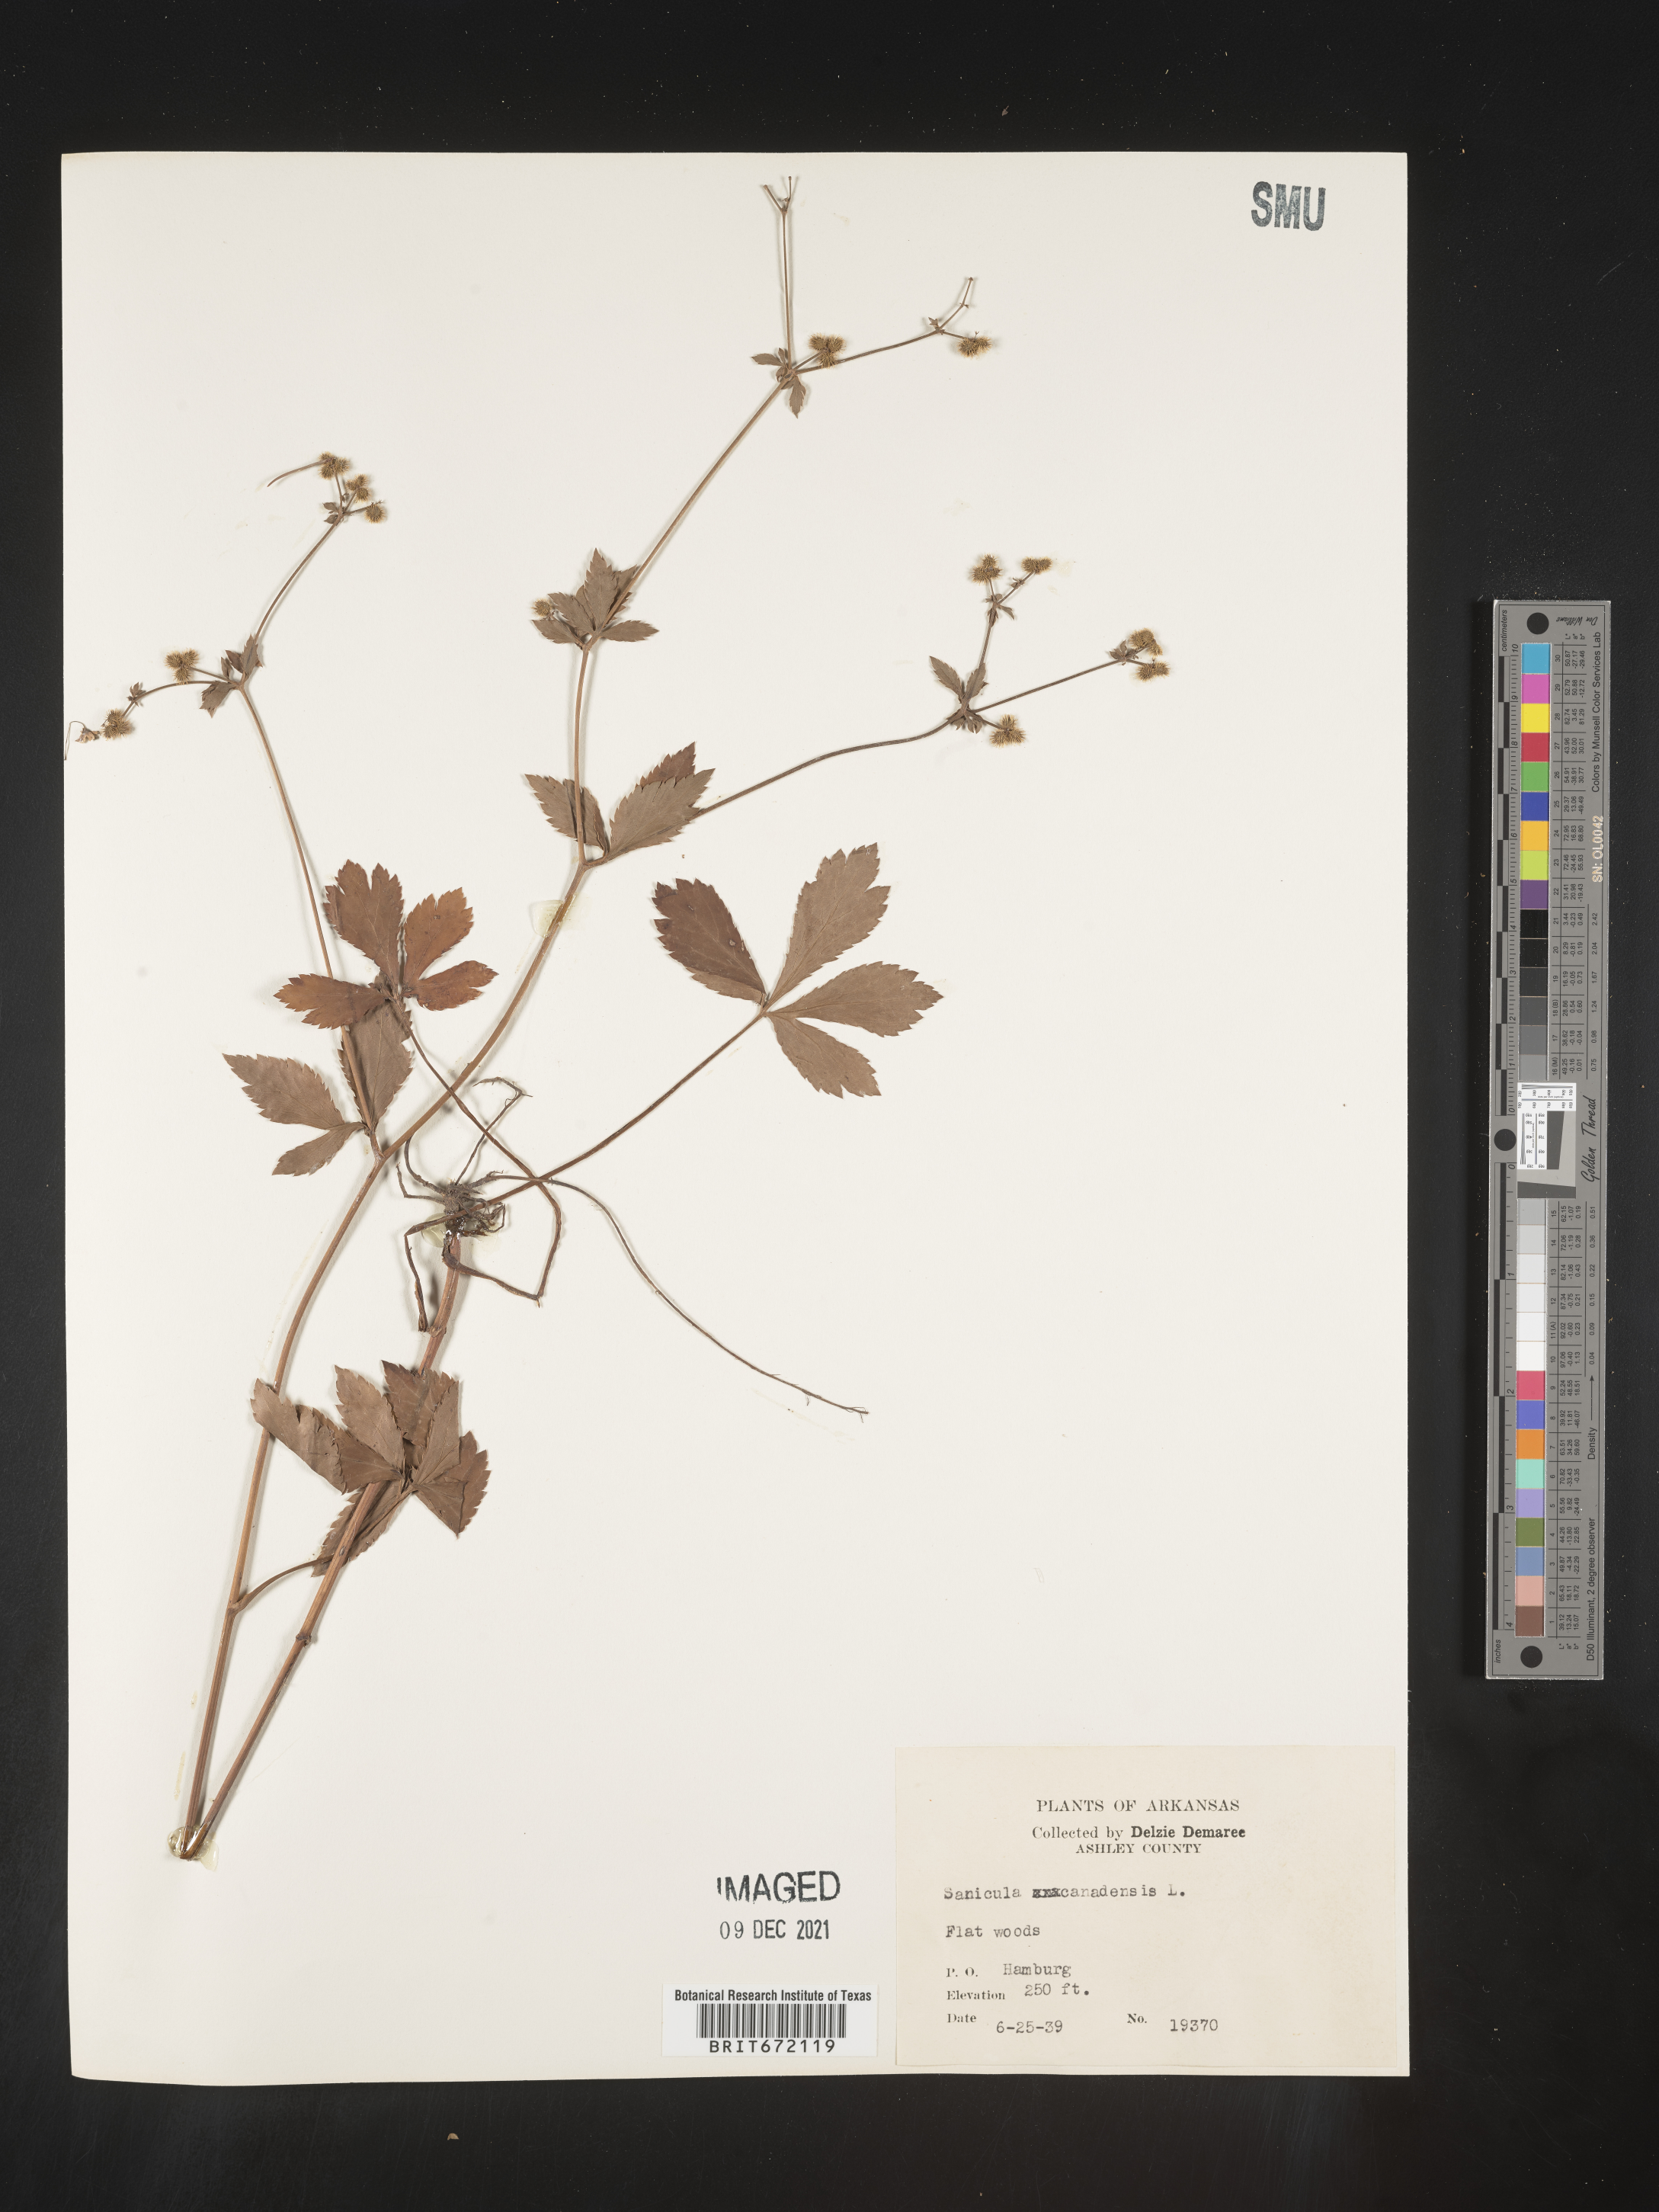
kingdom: Plantae
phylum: Tracheophyta
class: Magnoliopsida
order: Apiales
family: Apiaceae
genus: Sanicula
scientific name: Sanicula canadensis
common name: Canada sanicle
